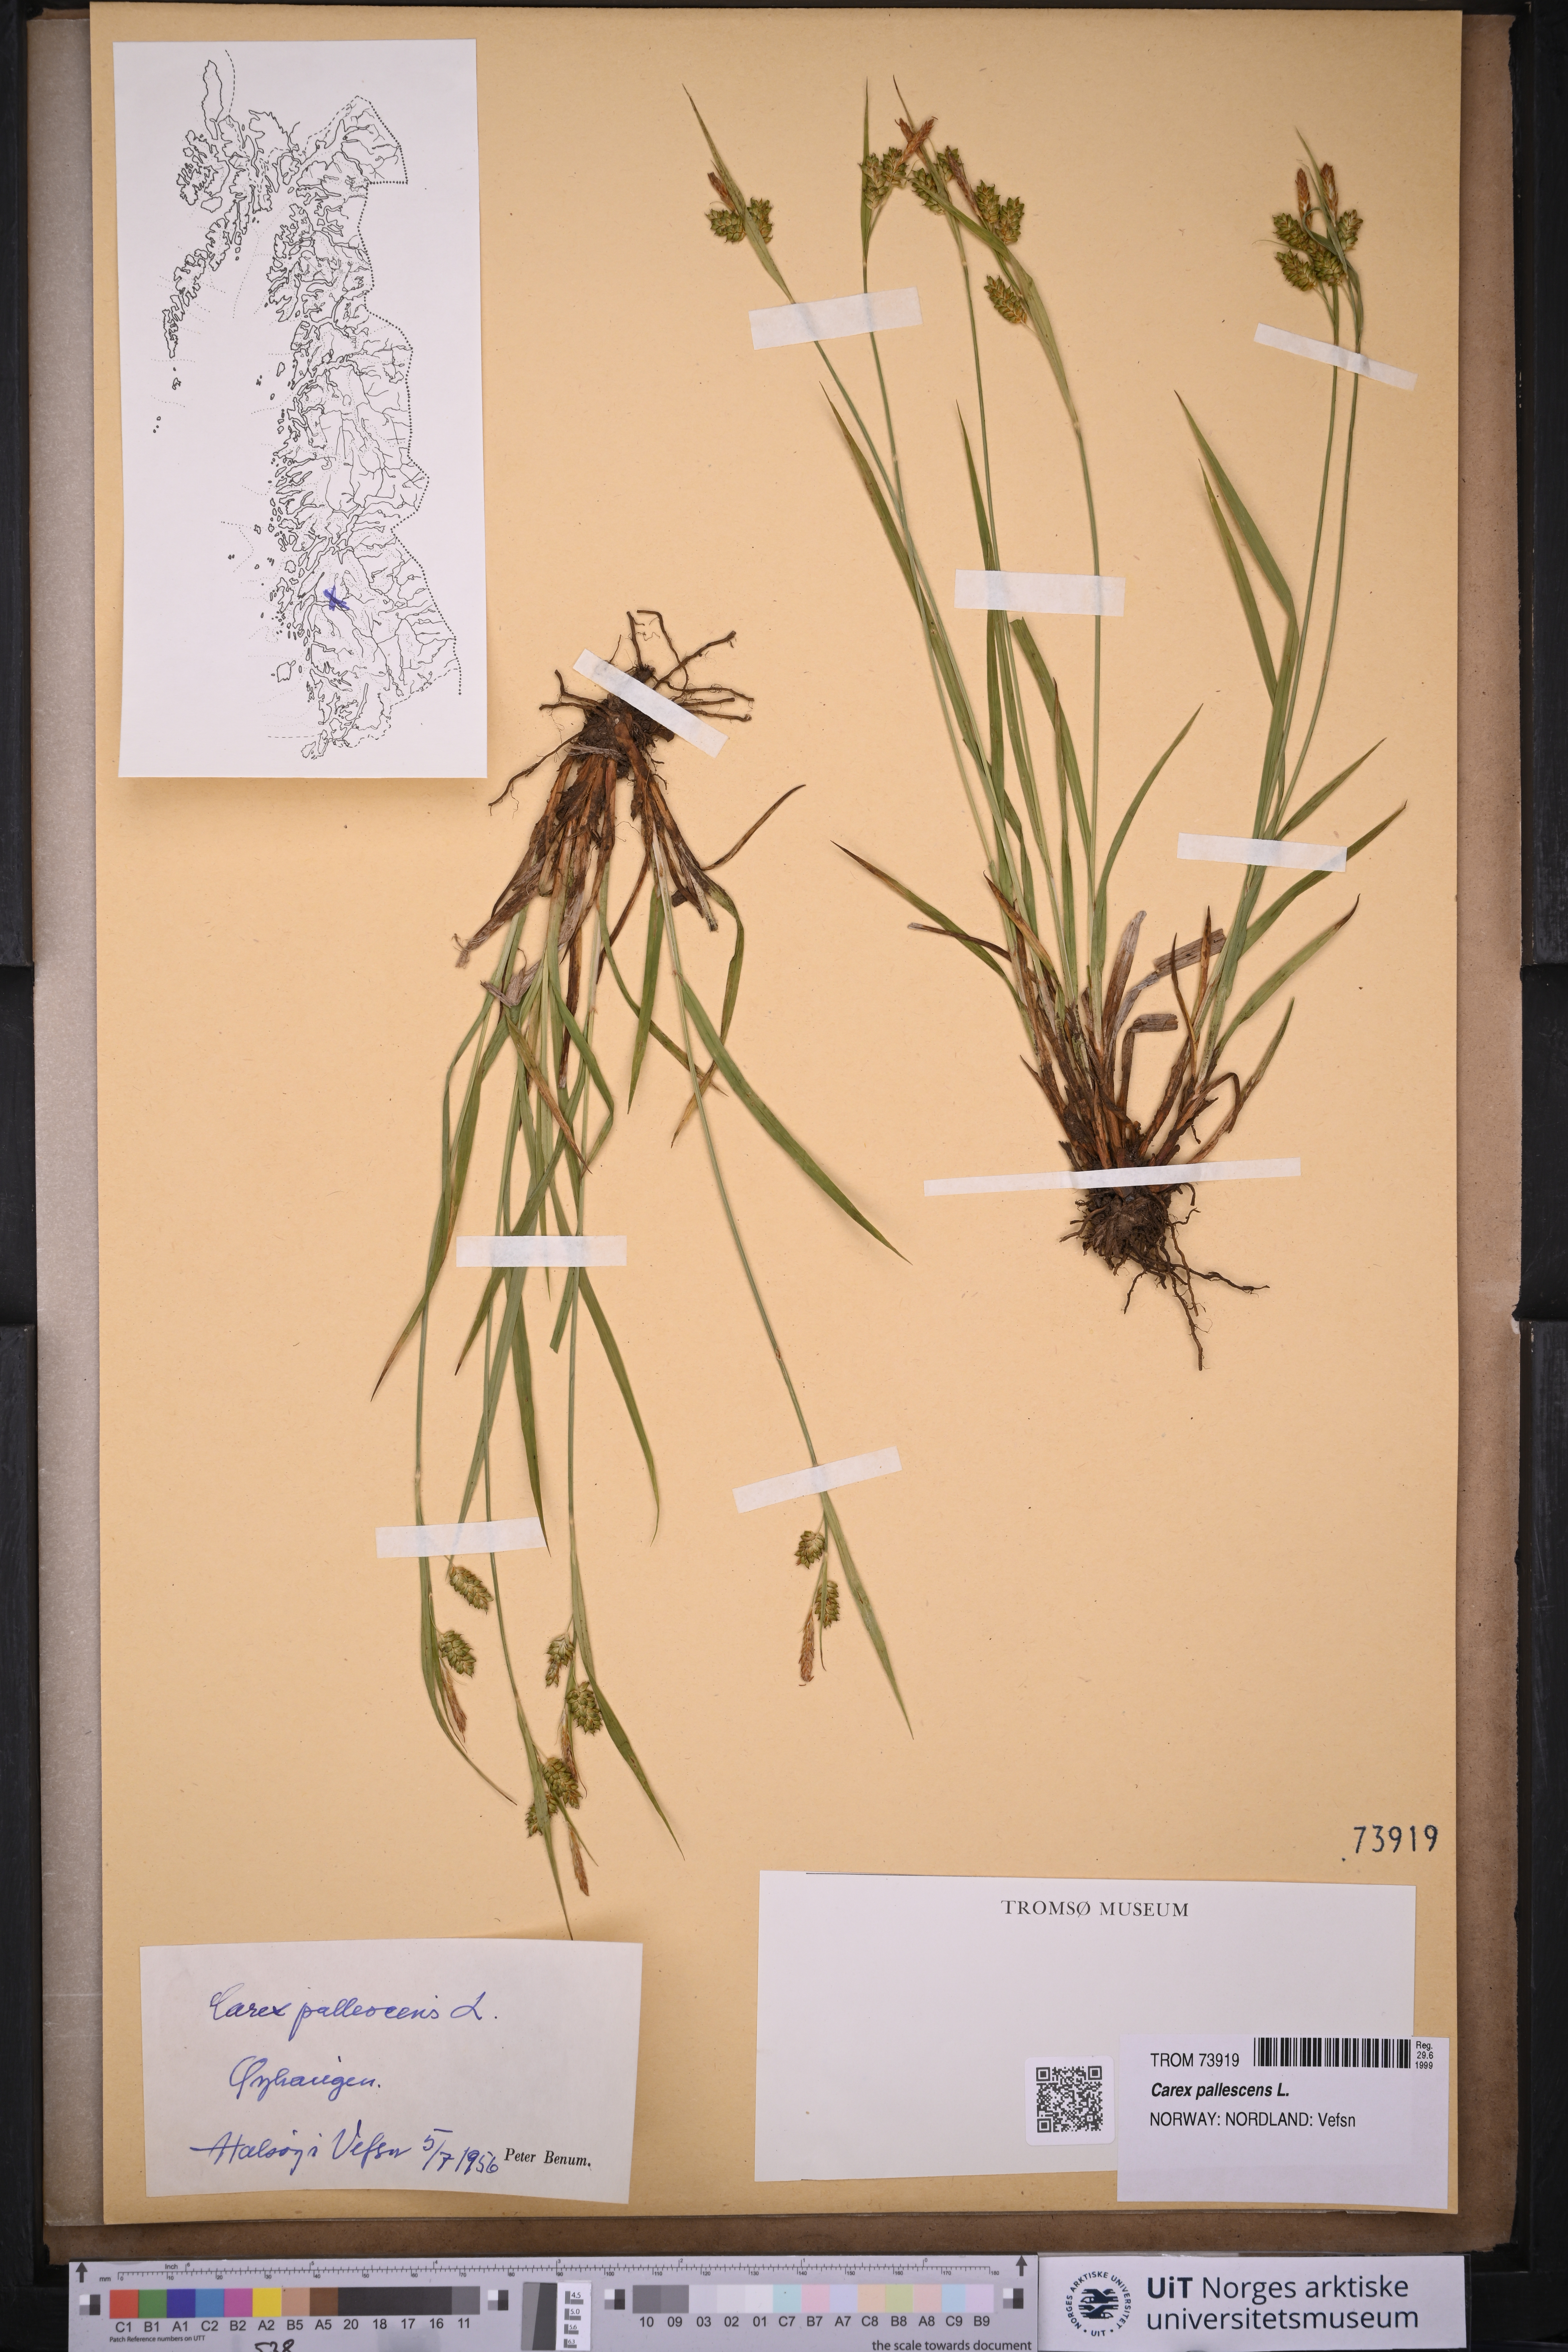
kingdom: Plantae
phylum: Tracheophyta
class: Liliopsida
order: Poales
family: Cyperaceae
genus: Carex
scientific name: Carex pallescens
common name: Pale sedge
